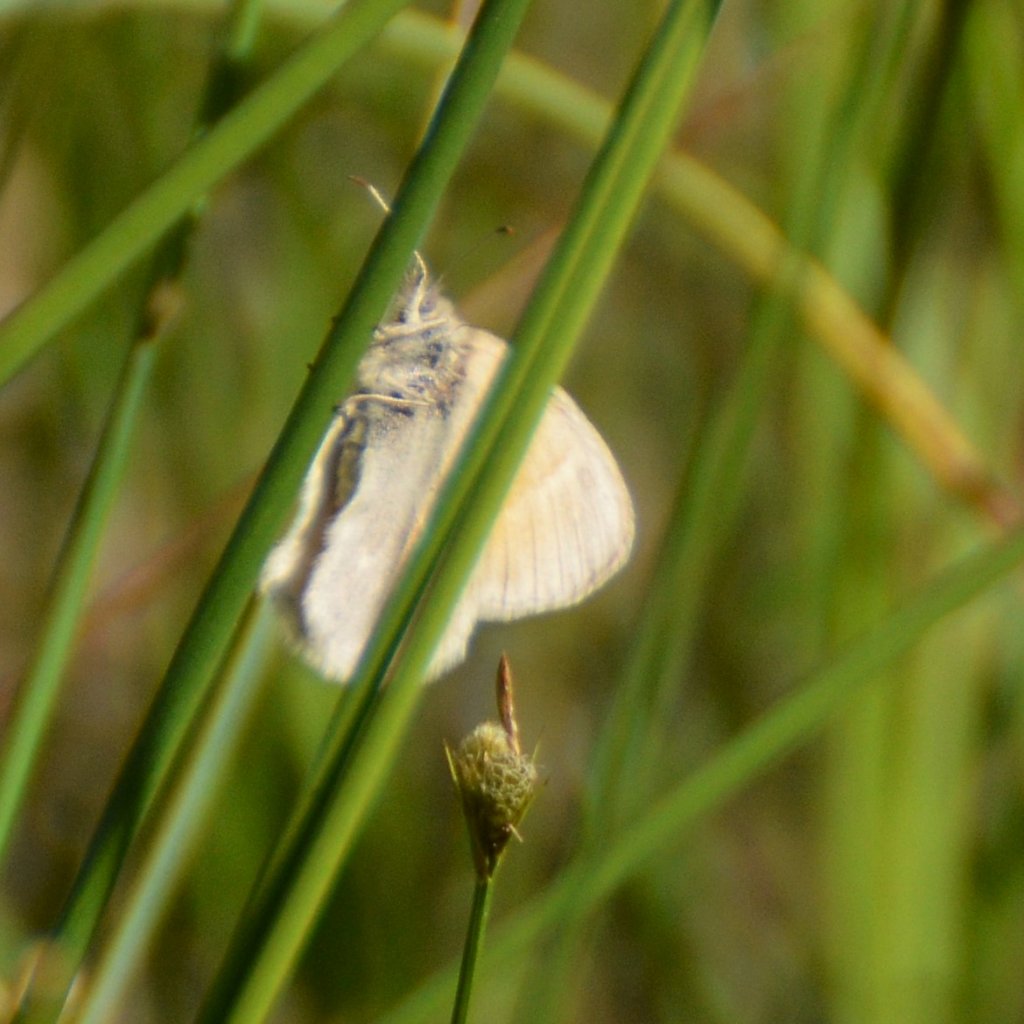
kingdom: Animalia
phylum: Arthropoda
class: Insecta
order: Lepidoptera
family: Nymphalidae
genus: Coenonympha
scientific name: Coenonympha tullia
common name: Large Heath
